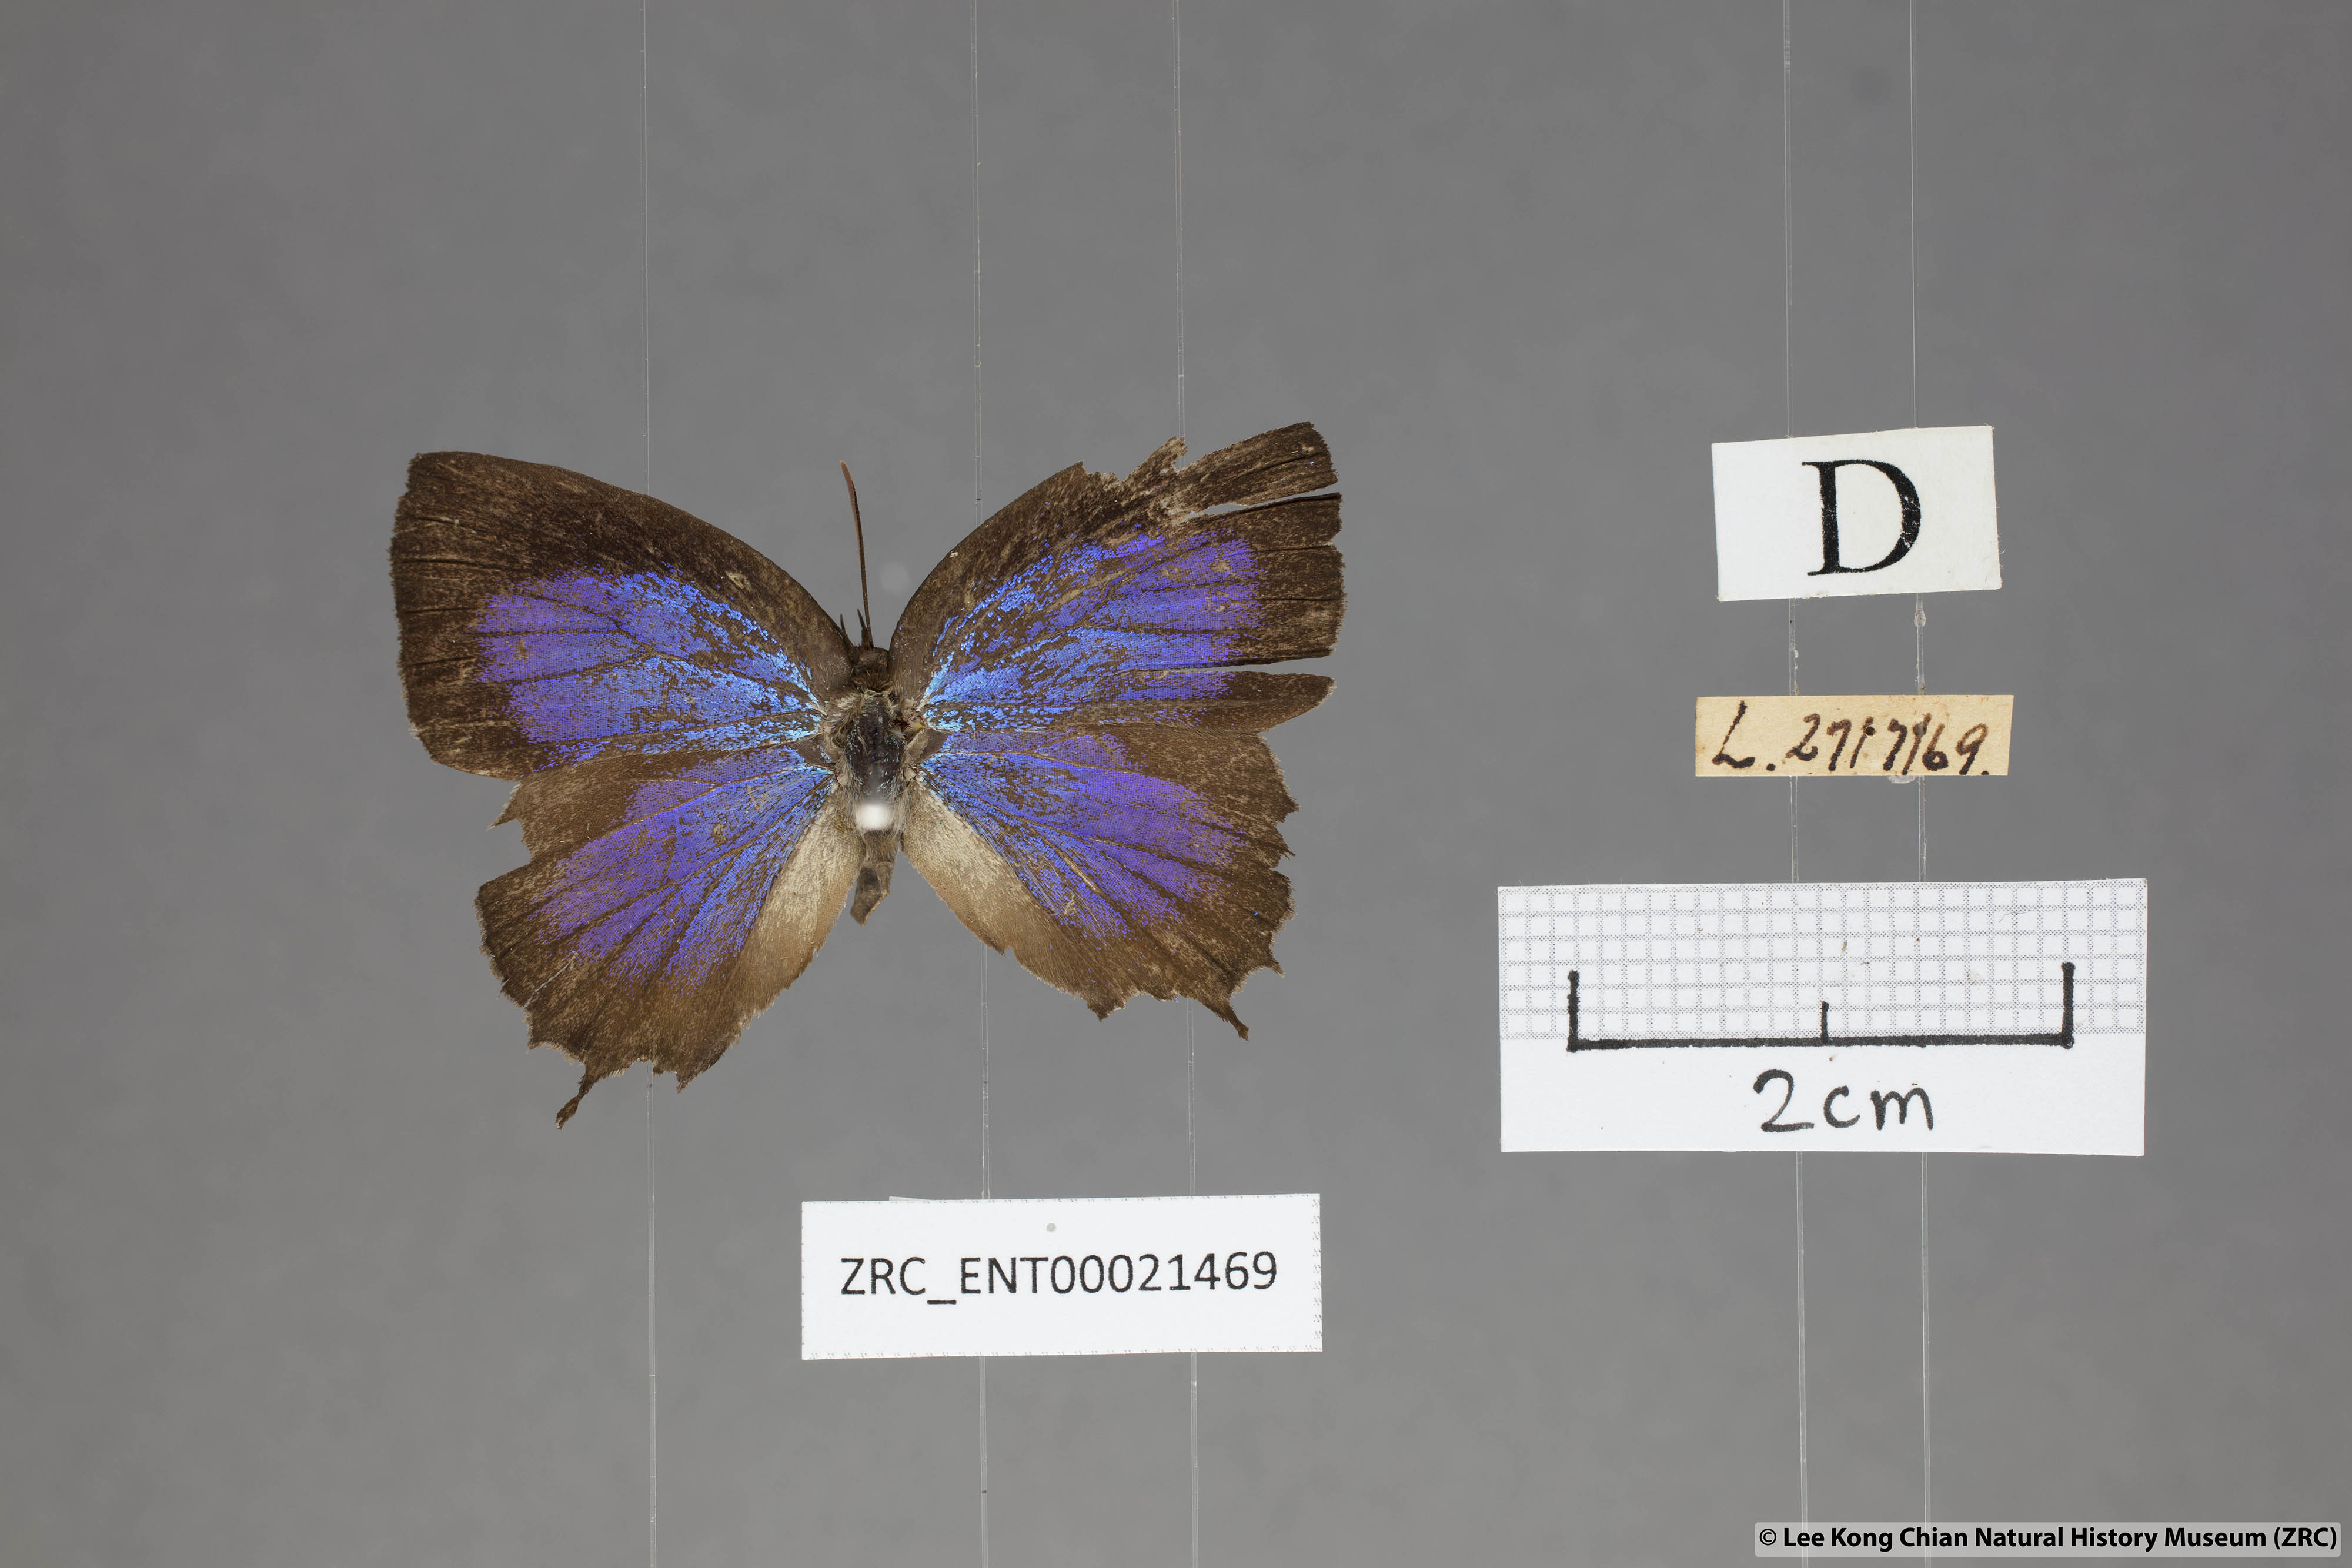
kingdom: Animalia
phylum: Arthropoda
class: Insecta
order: Lepidoptera
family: Lycaenidae
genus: Flos
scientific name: Flos apidanus
